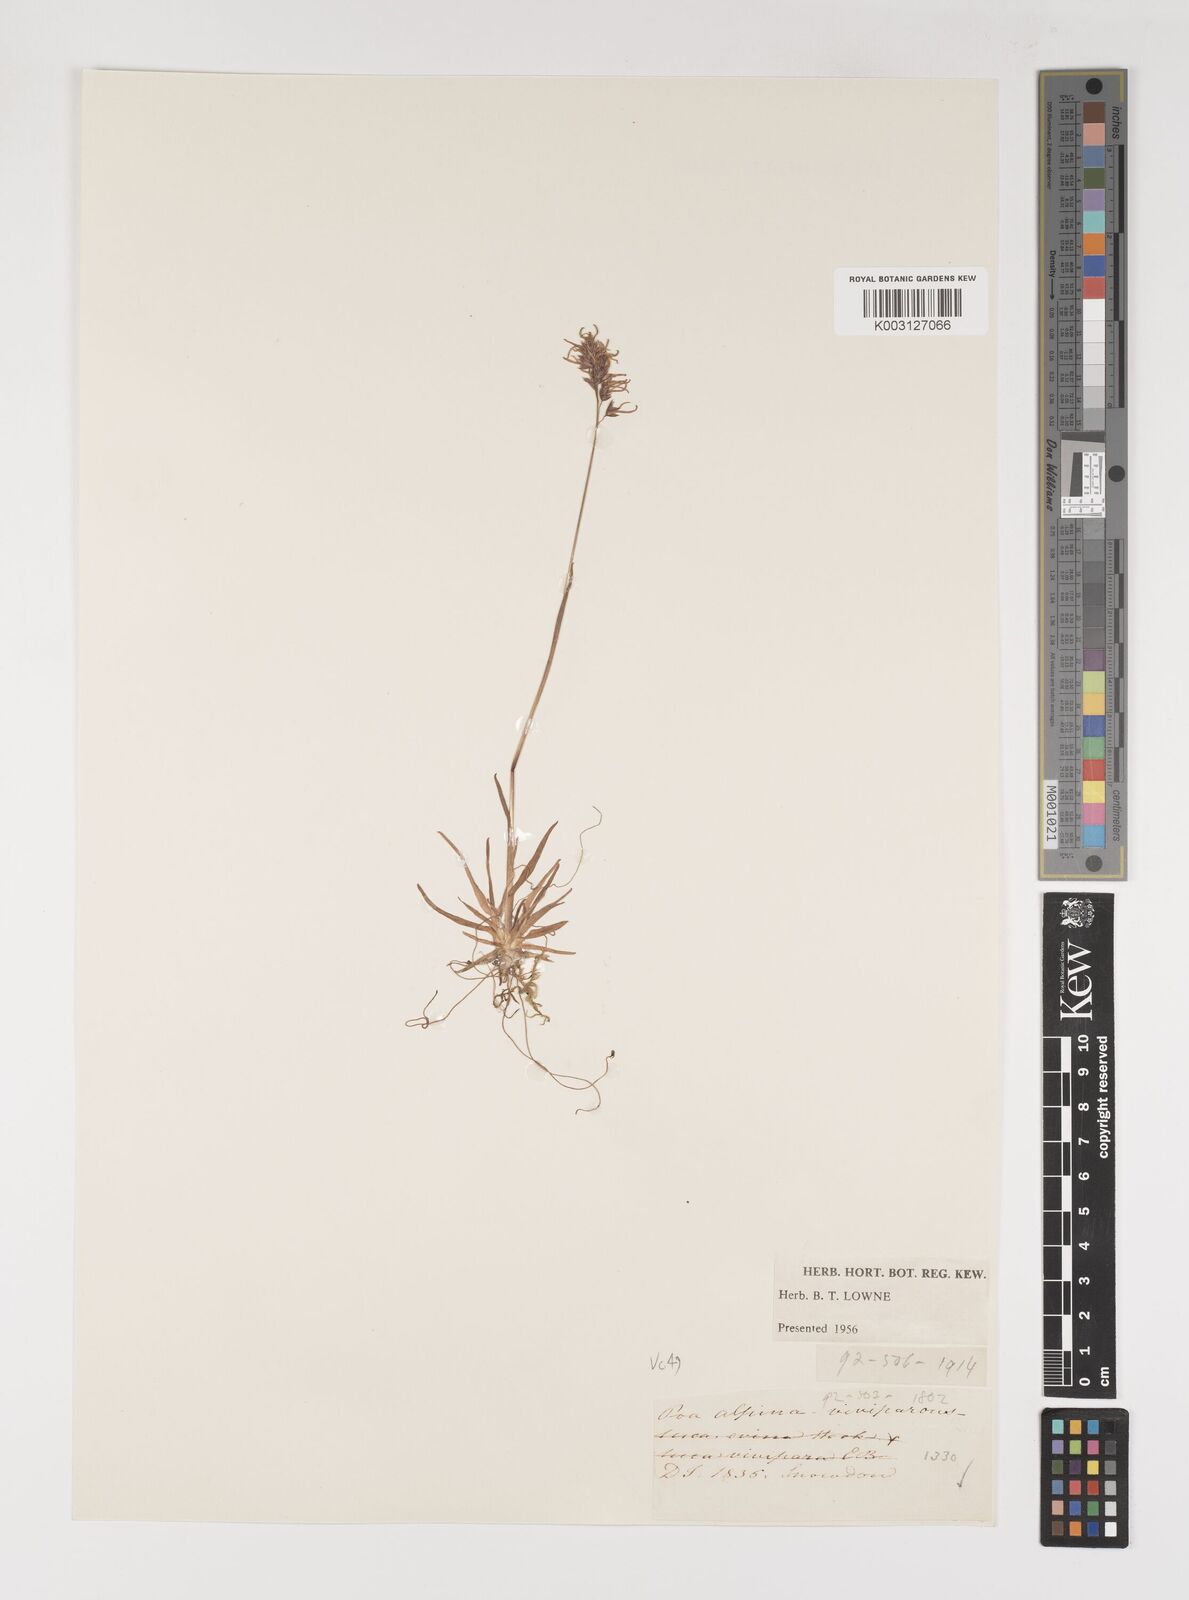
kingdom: Plantae
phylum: Tracheophyta
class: Liliopsida
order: Poales
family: Poaceae
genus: Poa
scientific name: Poa alpina
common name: Alpine bluegrass
